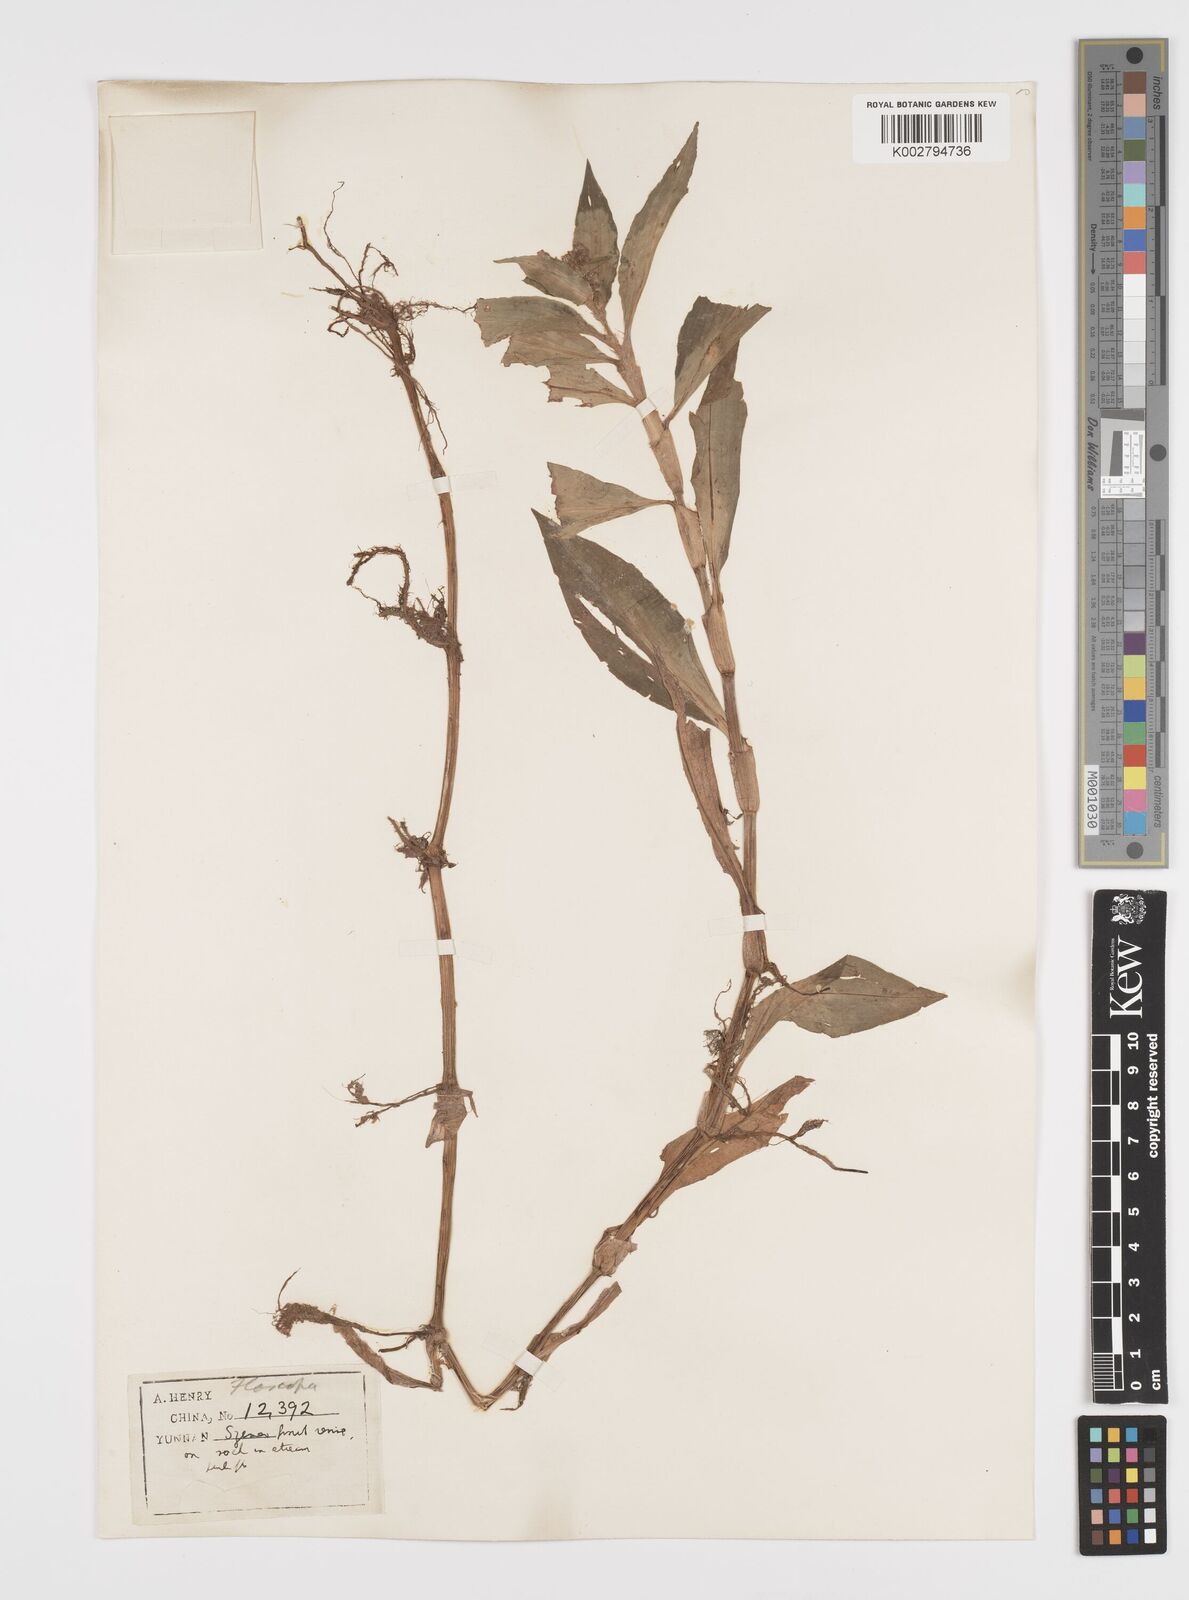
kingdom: Plantae
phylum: Tracheophyta
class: Liliopsida
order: Commelinales
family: Commelinaceae
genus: Floscopa
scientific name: Floscopa scandens
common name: Climbing flower cup
